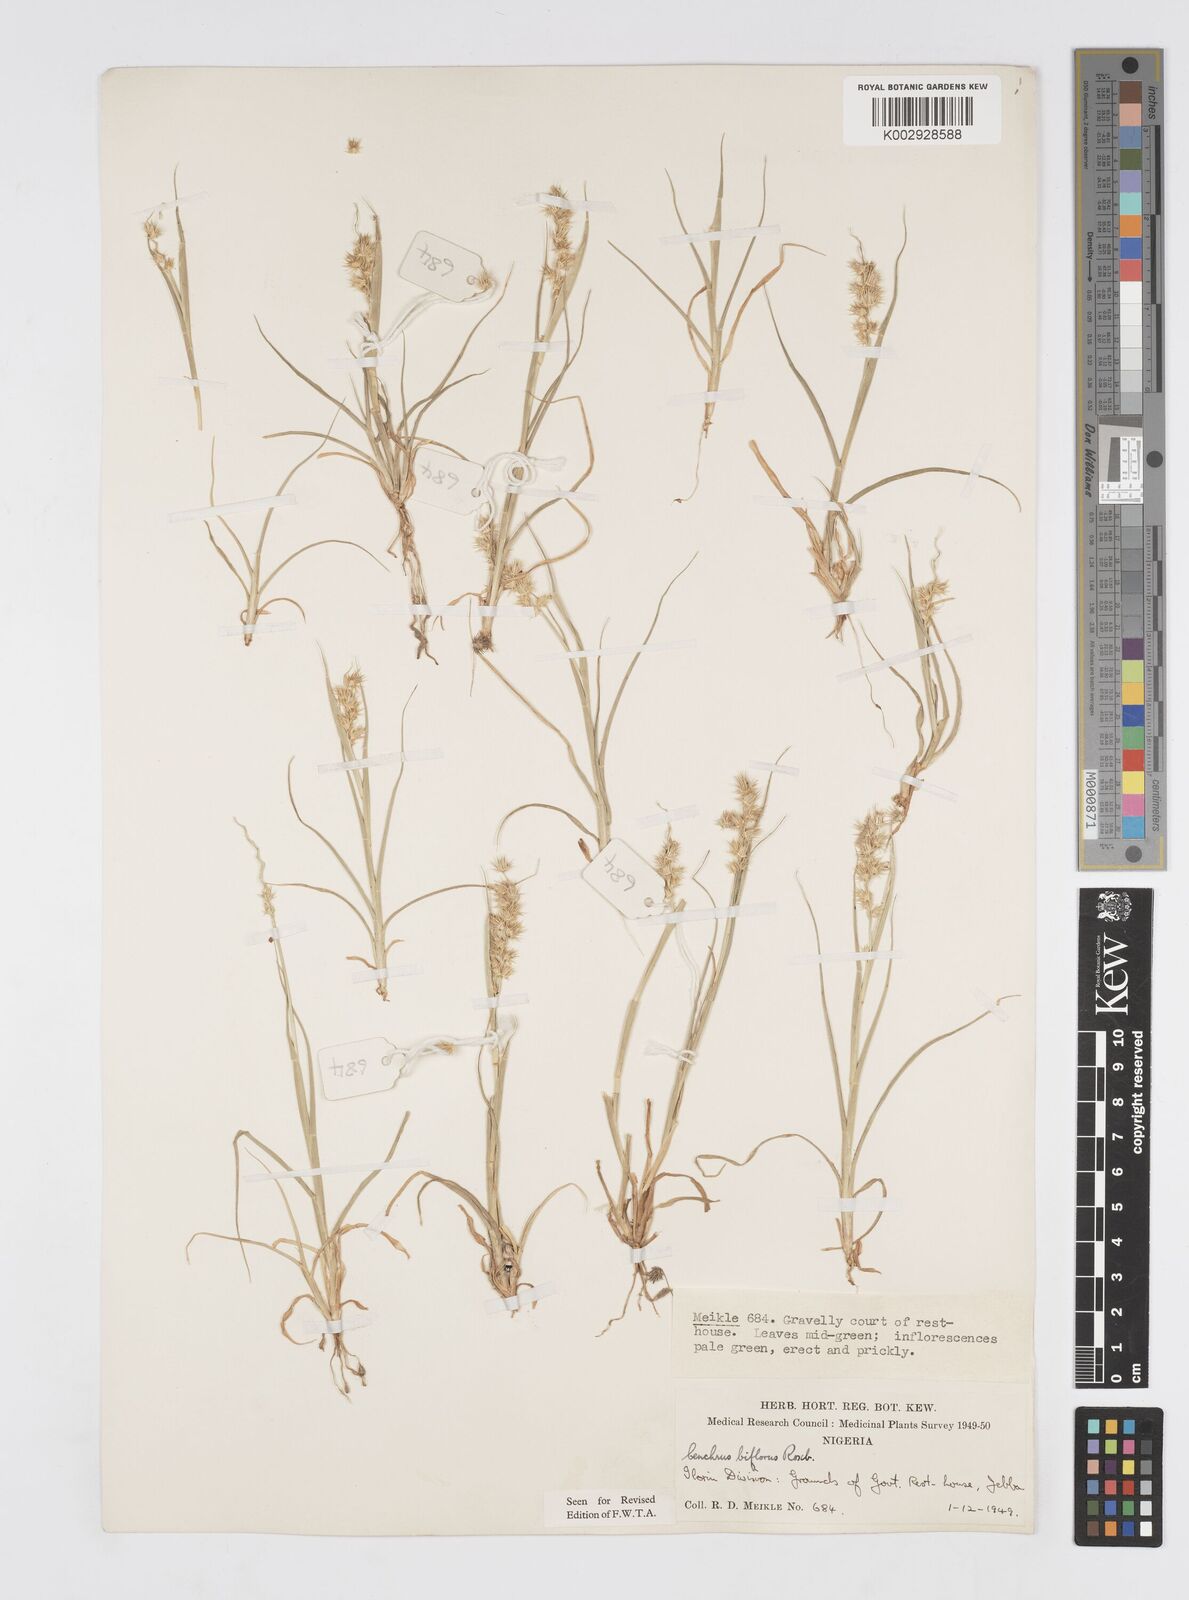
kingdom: Plantae
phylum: Tracheophyta
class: Liliopsida
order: Poales
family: Poaceae
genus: Cenchrus
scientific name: Cenchrus biflorus
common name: Indian sandbur
